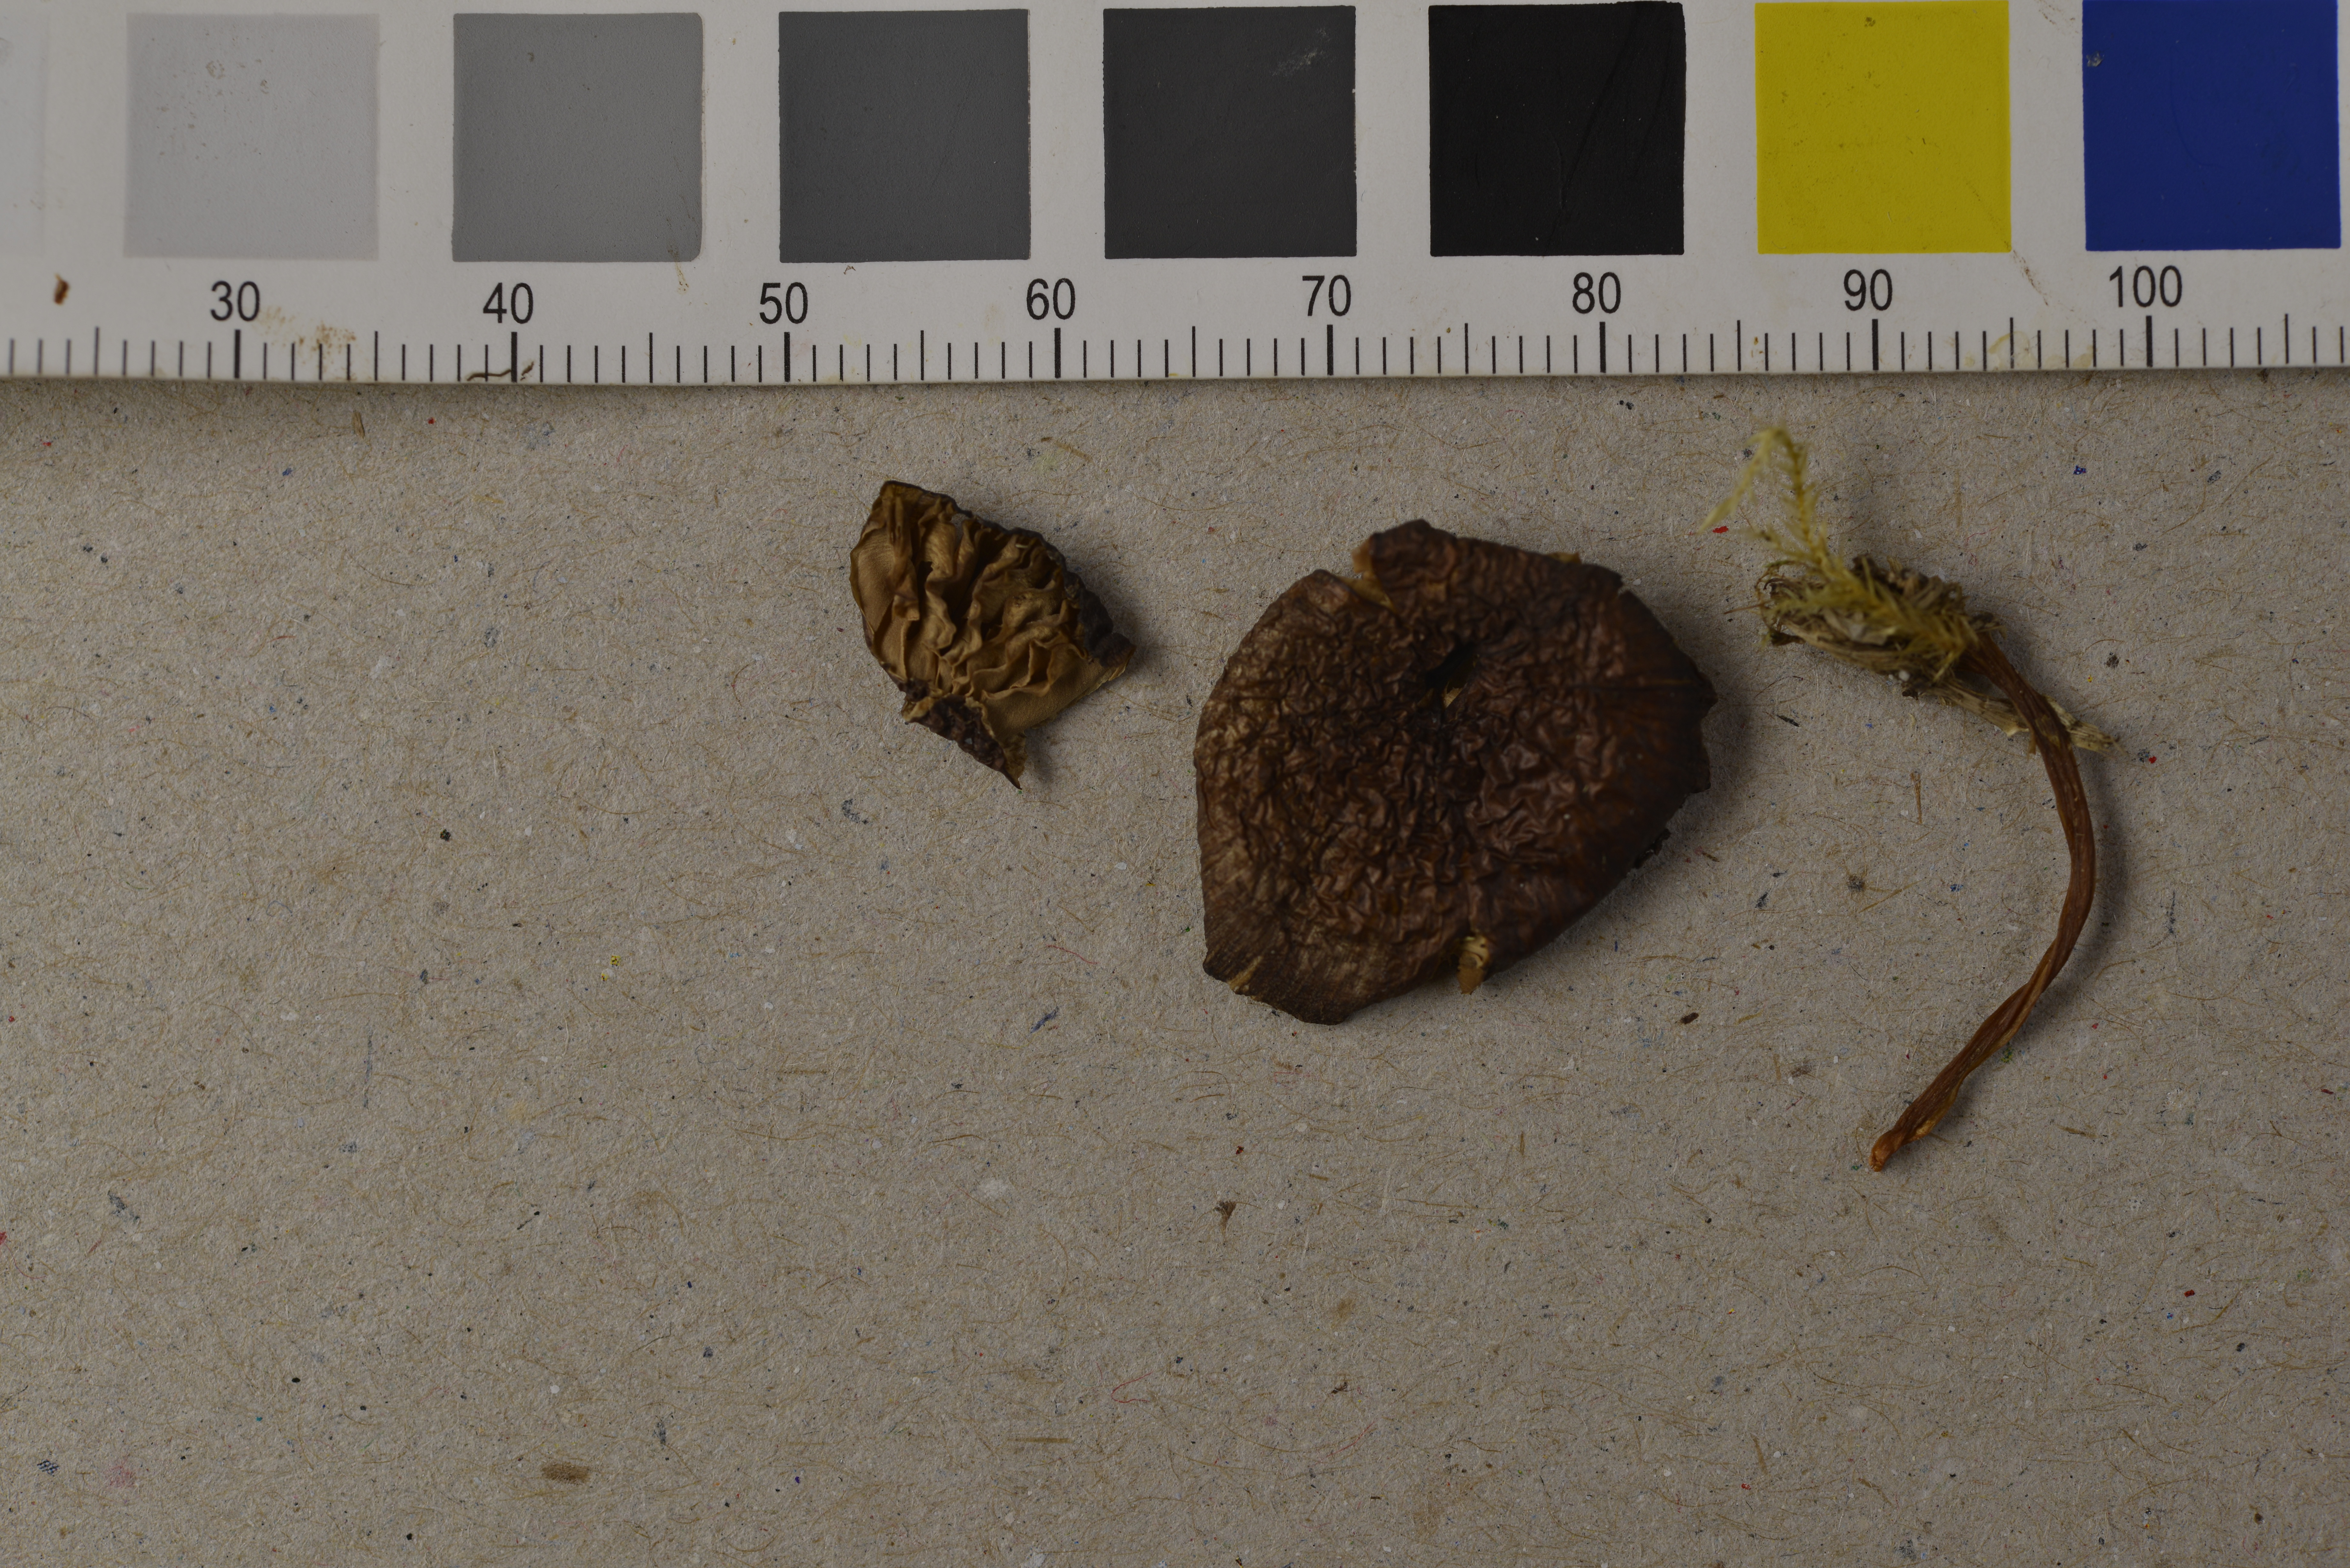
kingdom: Fungi
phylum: Basidiomycota
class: Agaricomycetes
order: Agaricales
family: Entolomataceae
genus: Entoloma
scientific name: Entoloma xanthochroum
